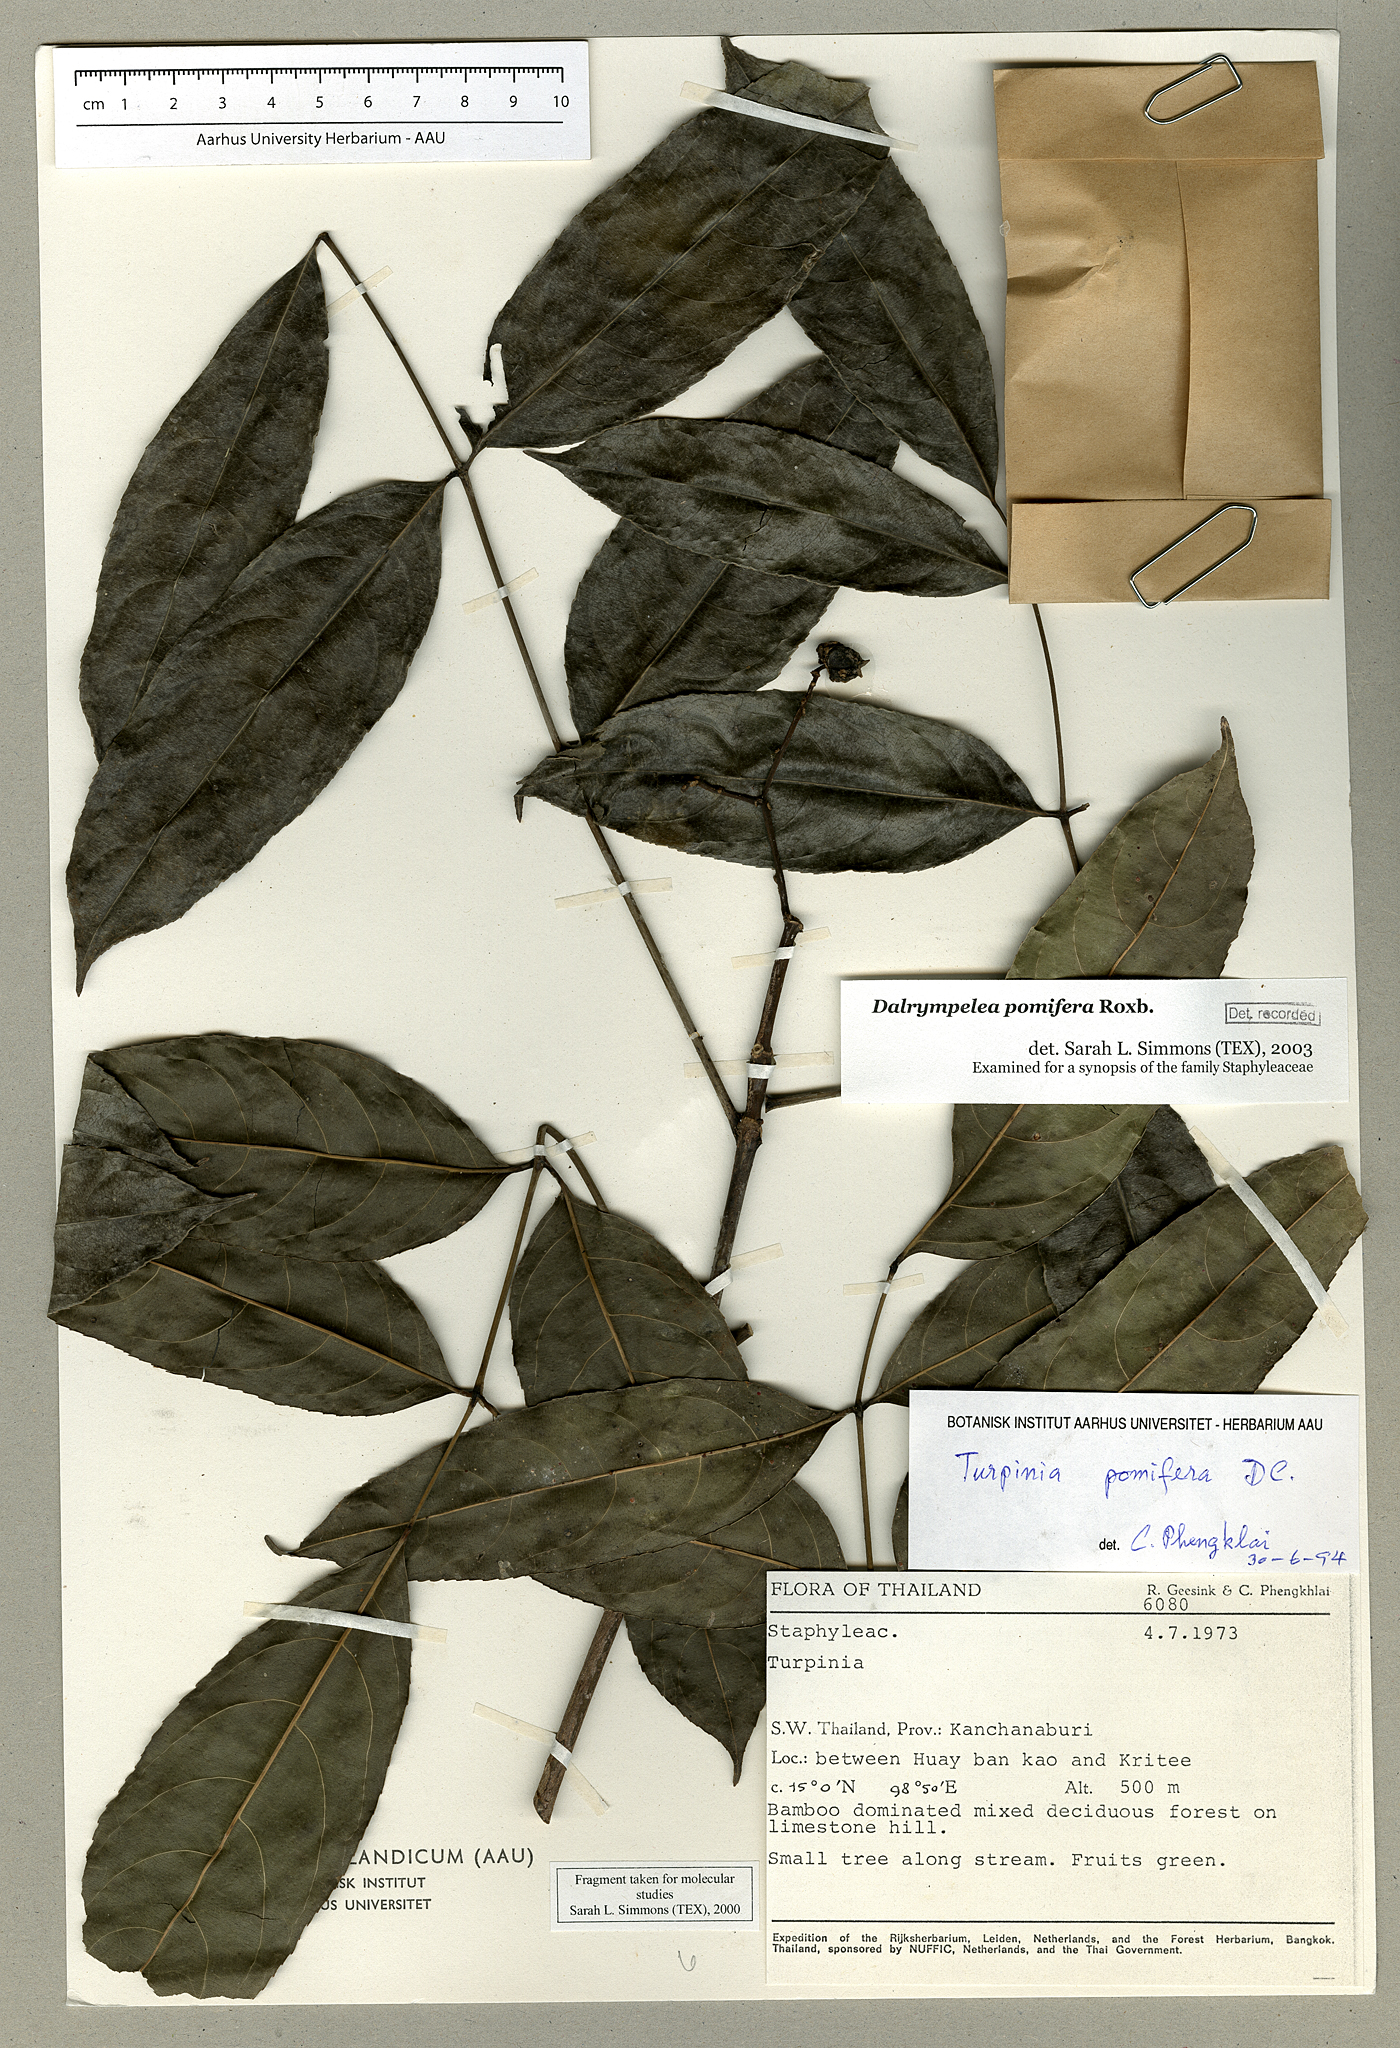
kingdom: Plantae
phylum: Tracheophyta
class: Magnoliopsida
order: Crossosomatales
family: Staphyleaceae
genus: Dalrympelea
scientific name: Dalrympelea pomifera
